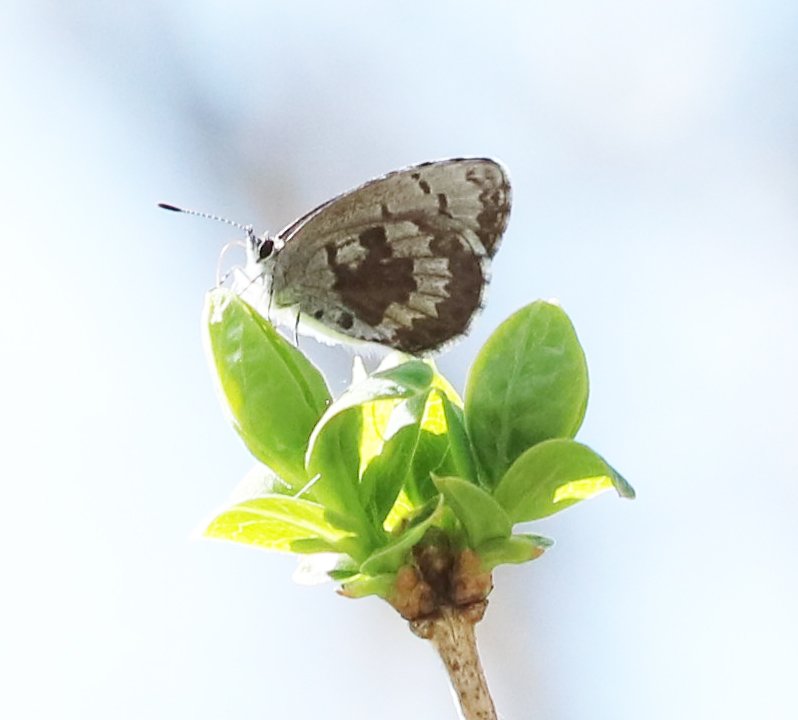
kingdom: Animalia
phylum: Arthropoda
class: Insecta
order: Lepidoptera
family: Lycaenidae
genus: Celastrina
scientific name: Celastrina lucia
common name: Northern Spring Azure
